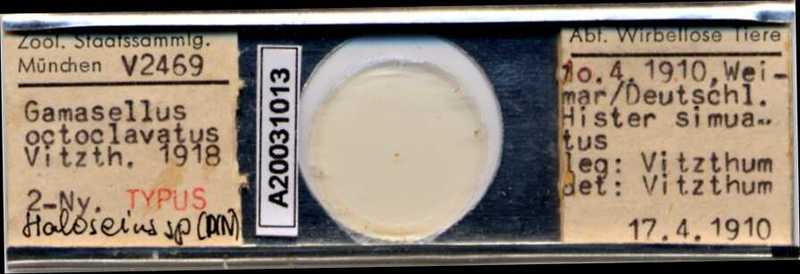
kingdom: Animalia
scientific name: Animalia
